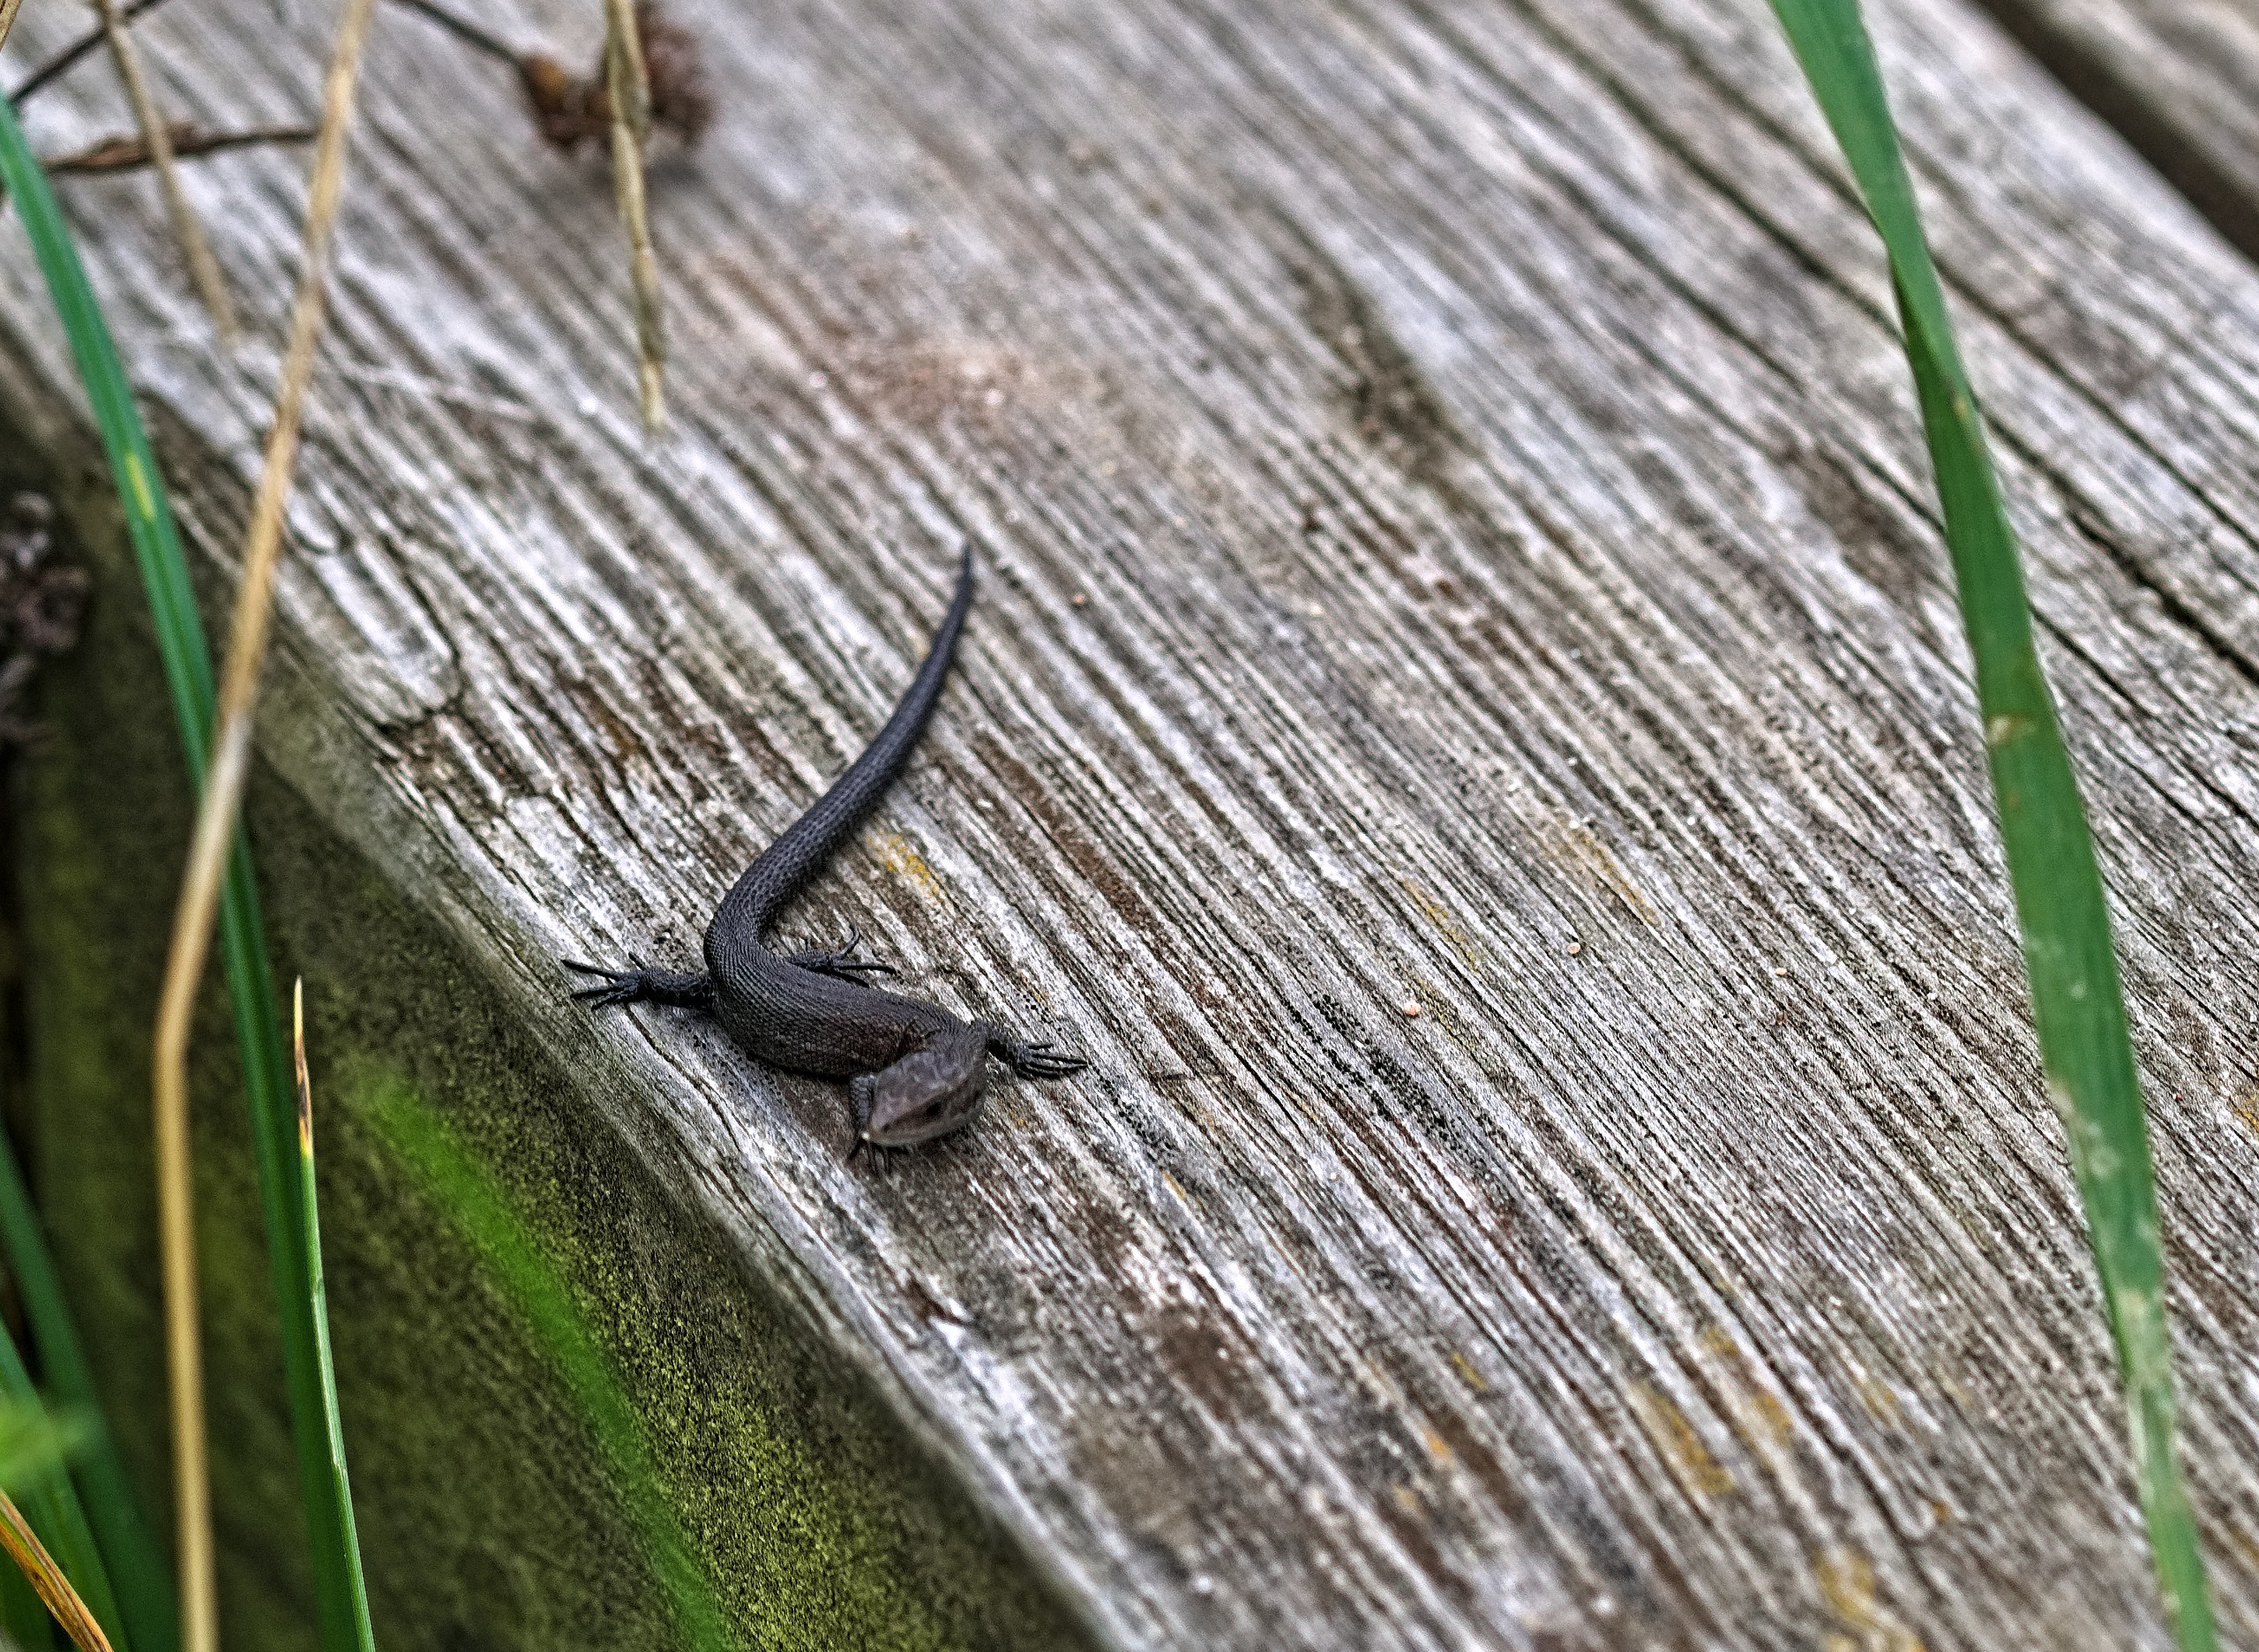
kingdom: Animalia
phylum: Chordata
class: Squamata
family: Lacertidae
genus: Zootoca
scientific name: Zootoca vivipara
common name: Skovfirben
